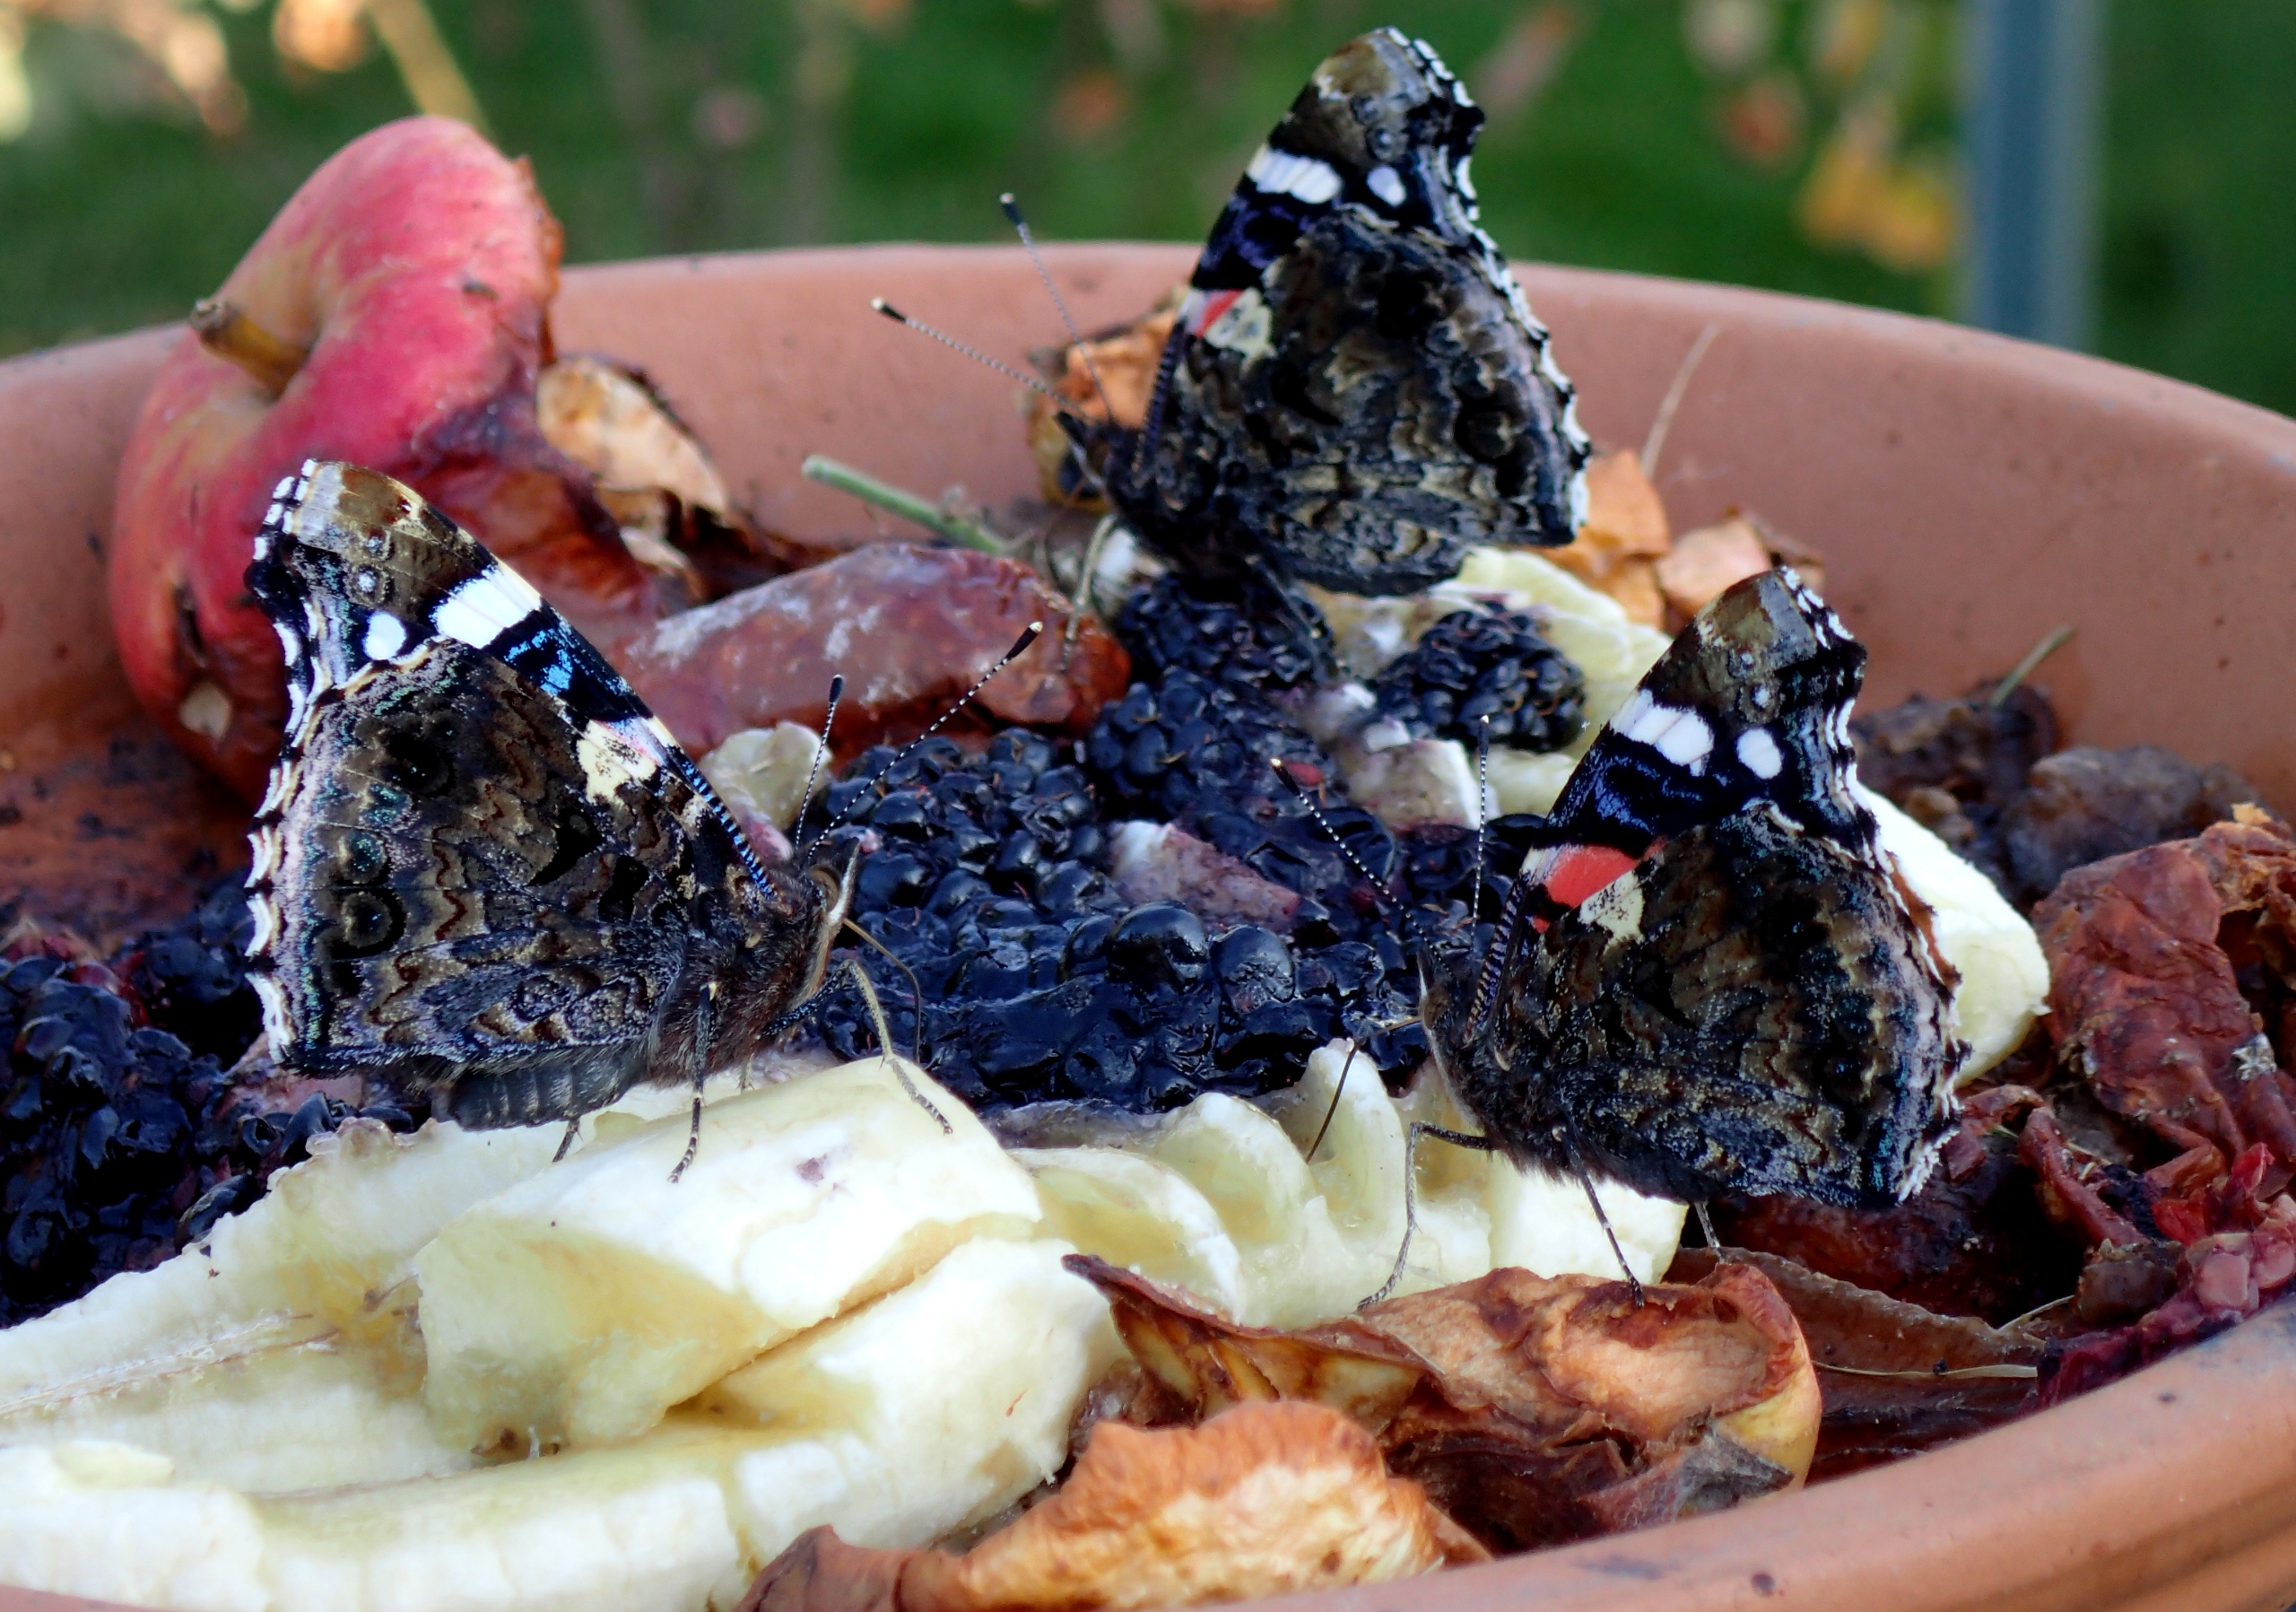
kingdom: Animalia
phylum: Arthropoda
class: Insecta
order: Lepidoptera
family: Nymphalidae
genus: Vanessa
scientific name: Vanessa atalanta
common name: Admiral
